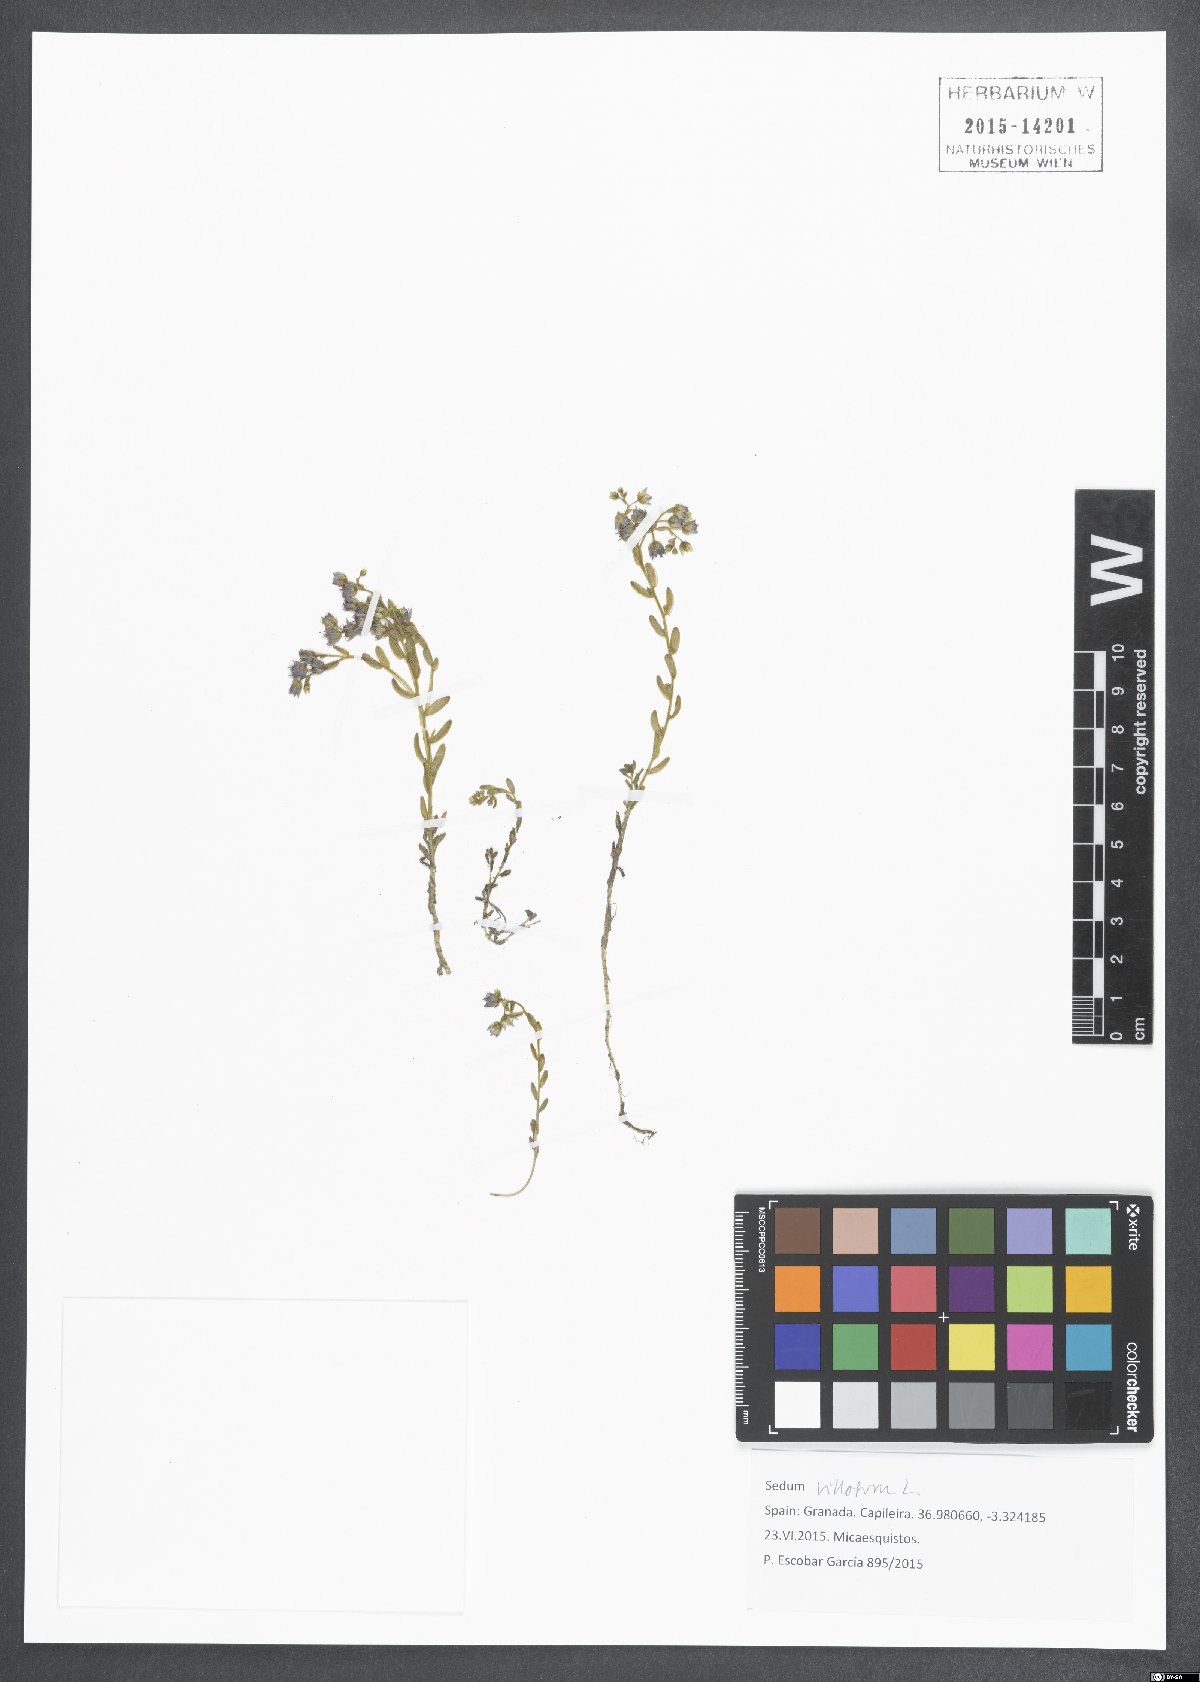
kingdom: Plantae
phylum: Tracheophyta
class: Magnoliopsida
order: Saxifragales
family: Crassulaceae
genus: Sedum
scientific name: Sedum villosum
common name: Hairy stonecrop
